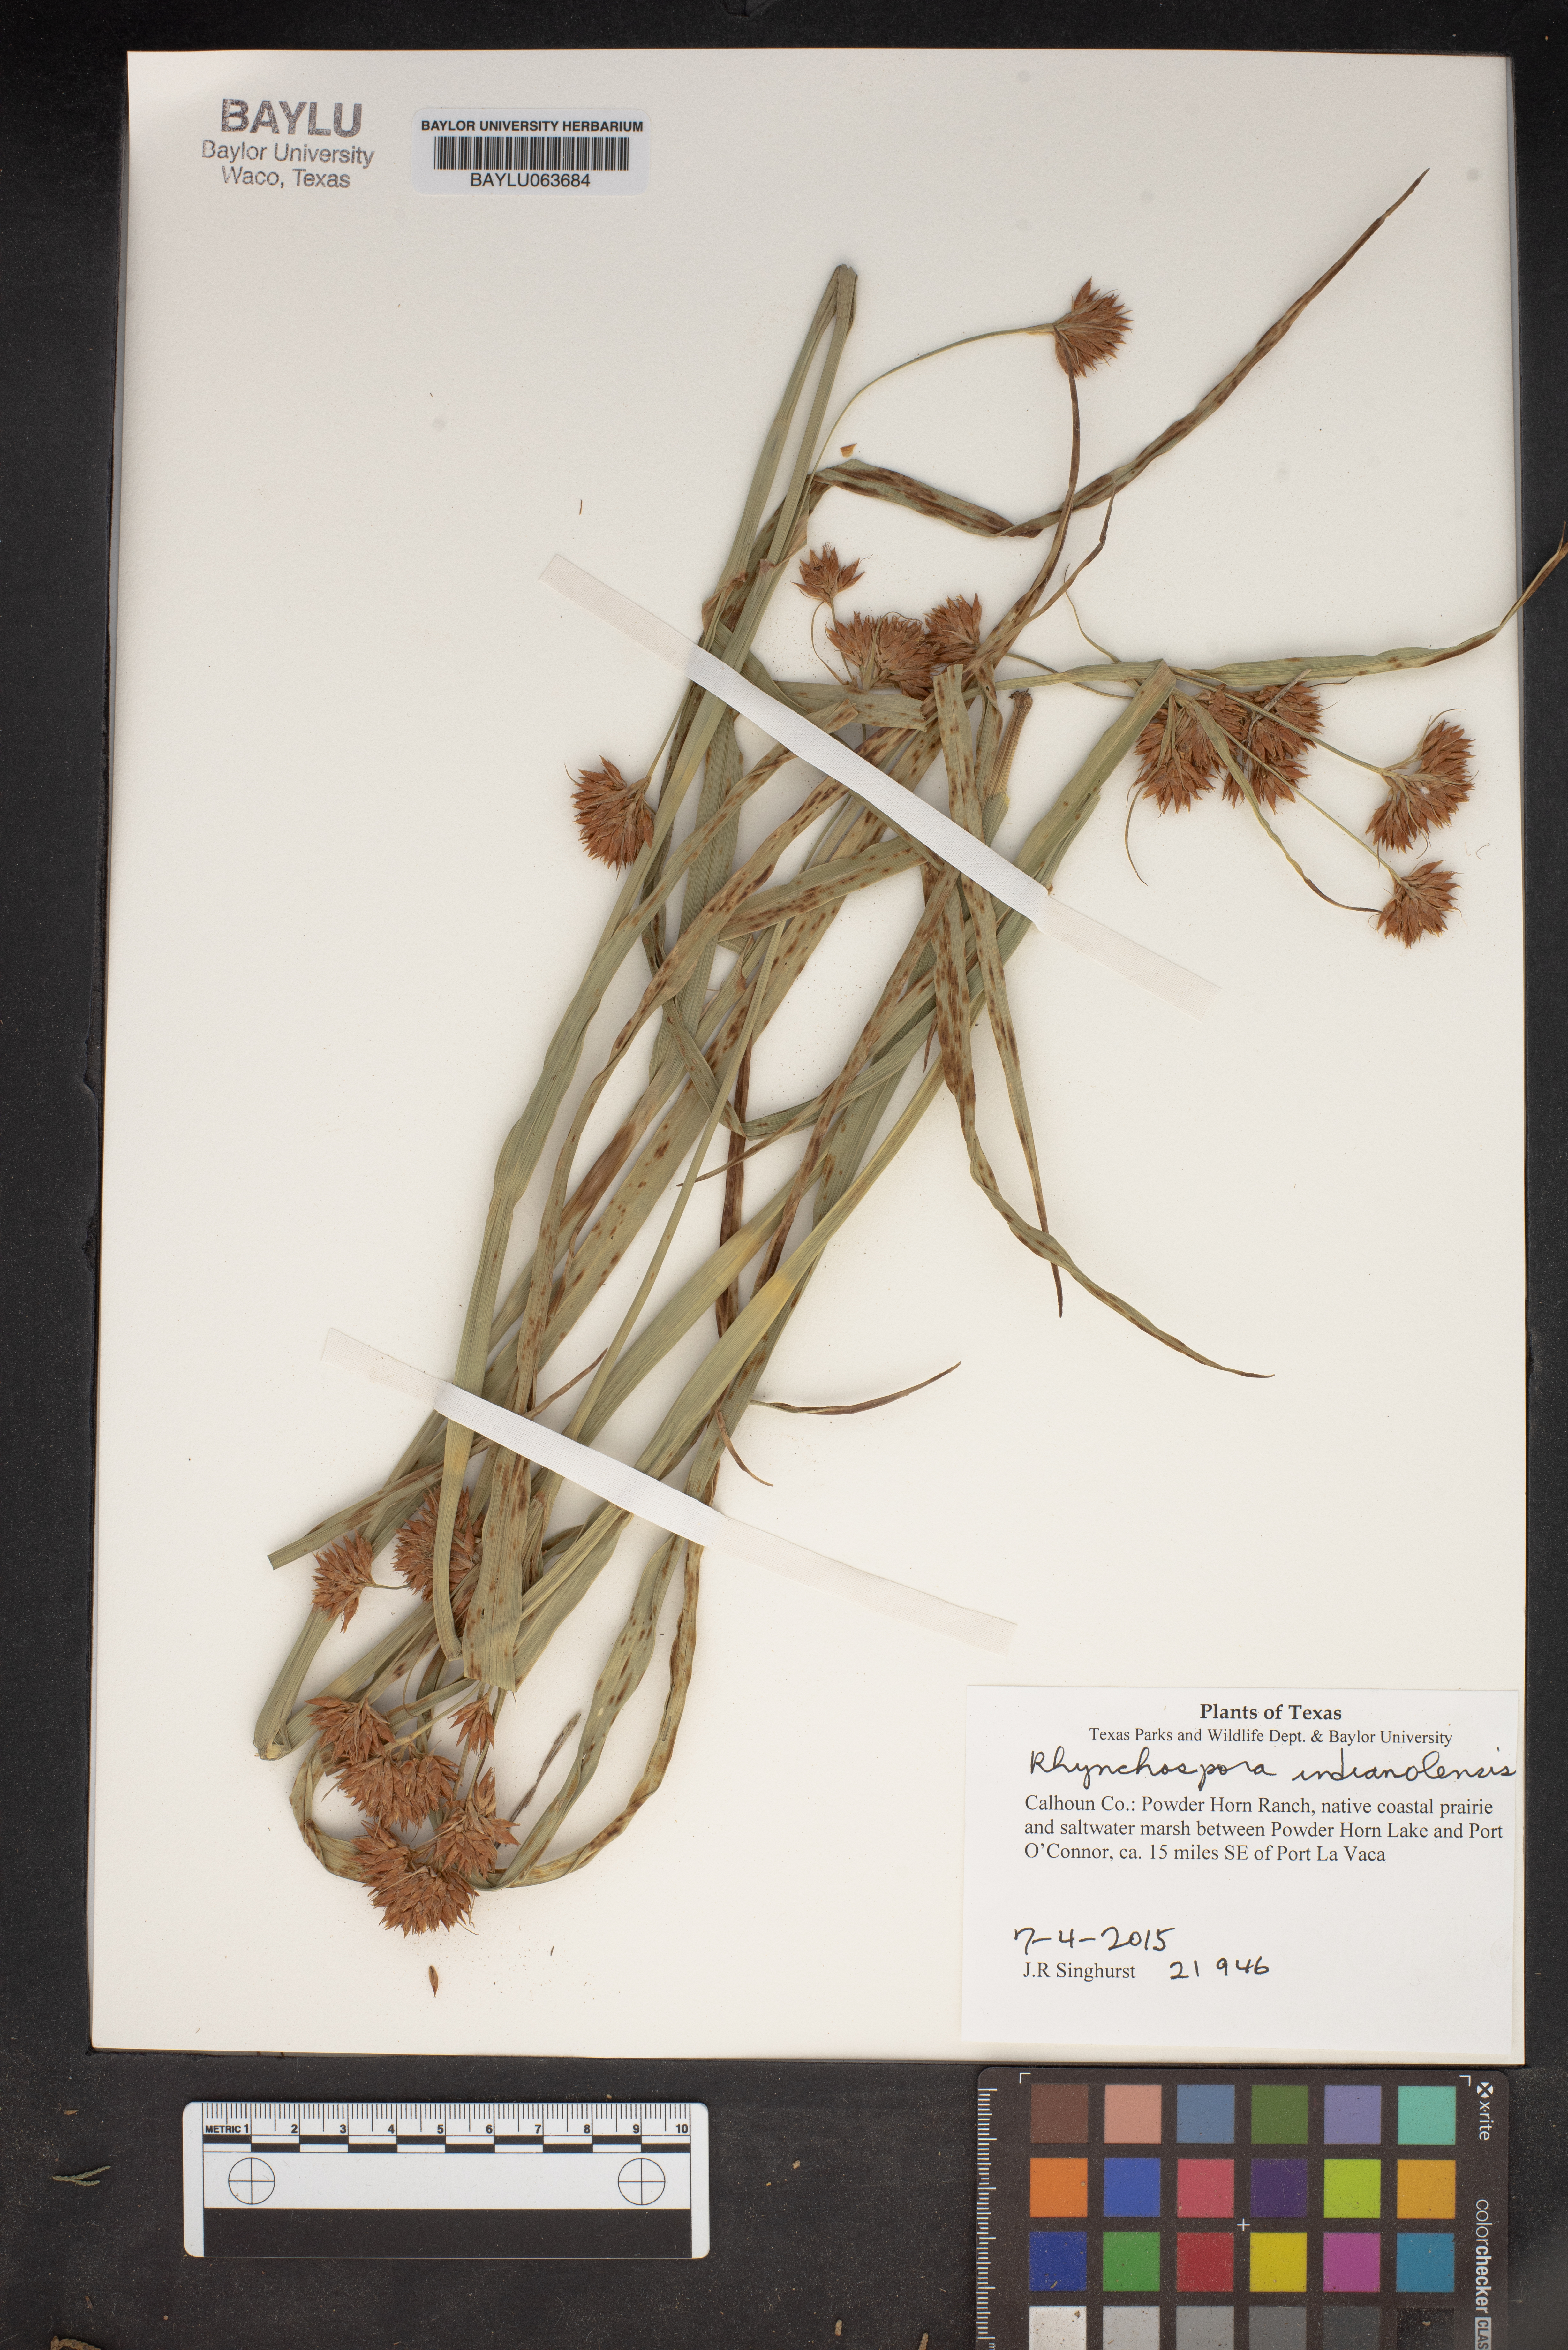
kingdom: Plantae
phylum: Tracheophyta
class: Liliopsida
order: Poales
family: Cyperaceae
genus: Rhynchospora
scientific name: Rhynchospora scutellata
